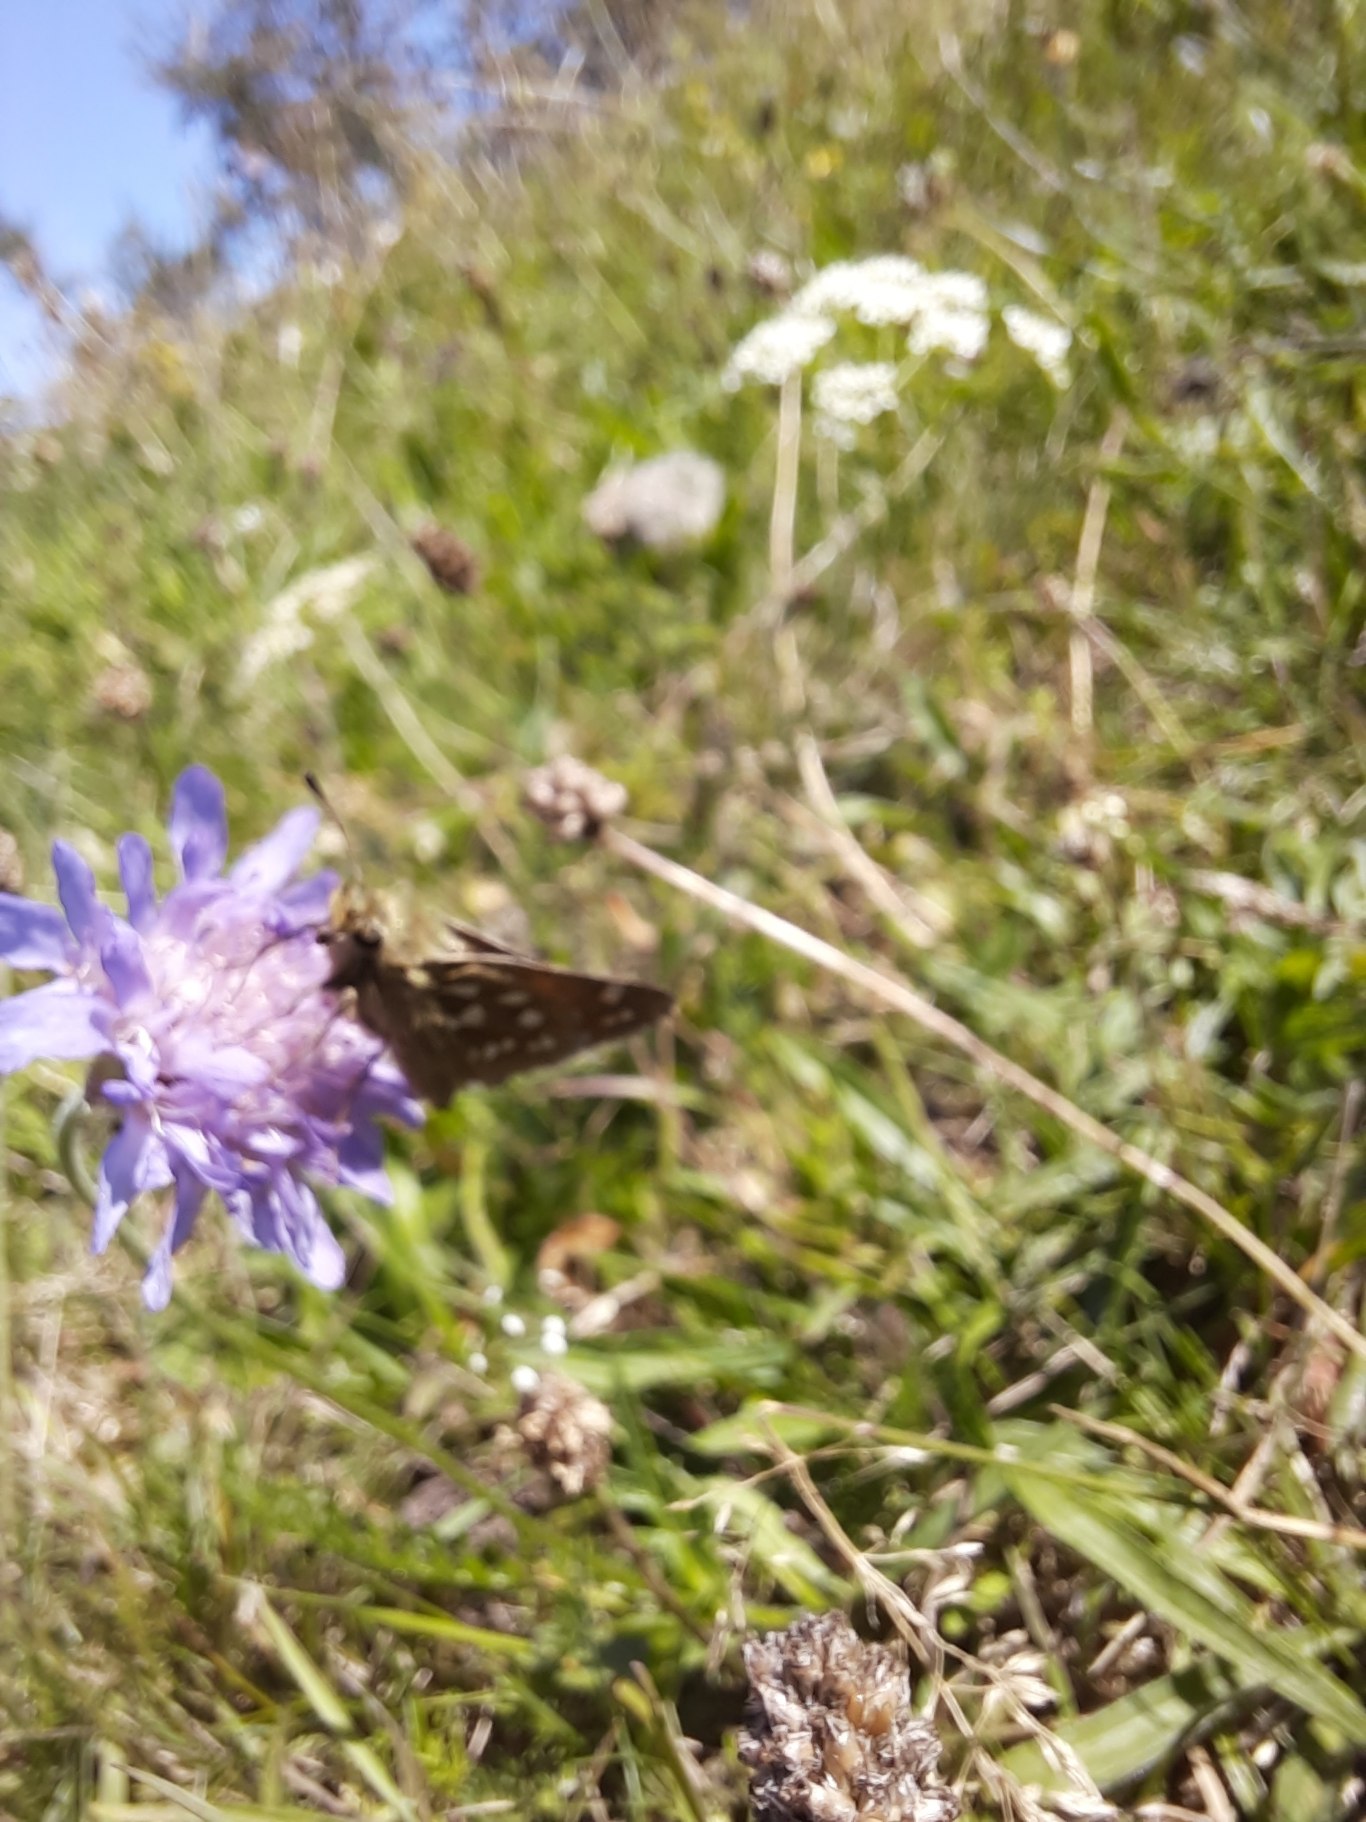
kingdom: Animalia
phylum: Arthropoda
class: Insecta
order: Lepidoptera
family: Hesperiidae
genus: Hesperia
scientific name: Hesperia comma
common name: Kommabredpande
